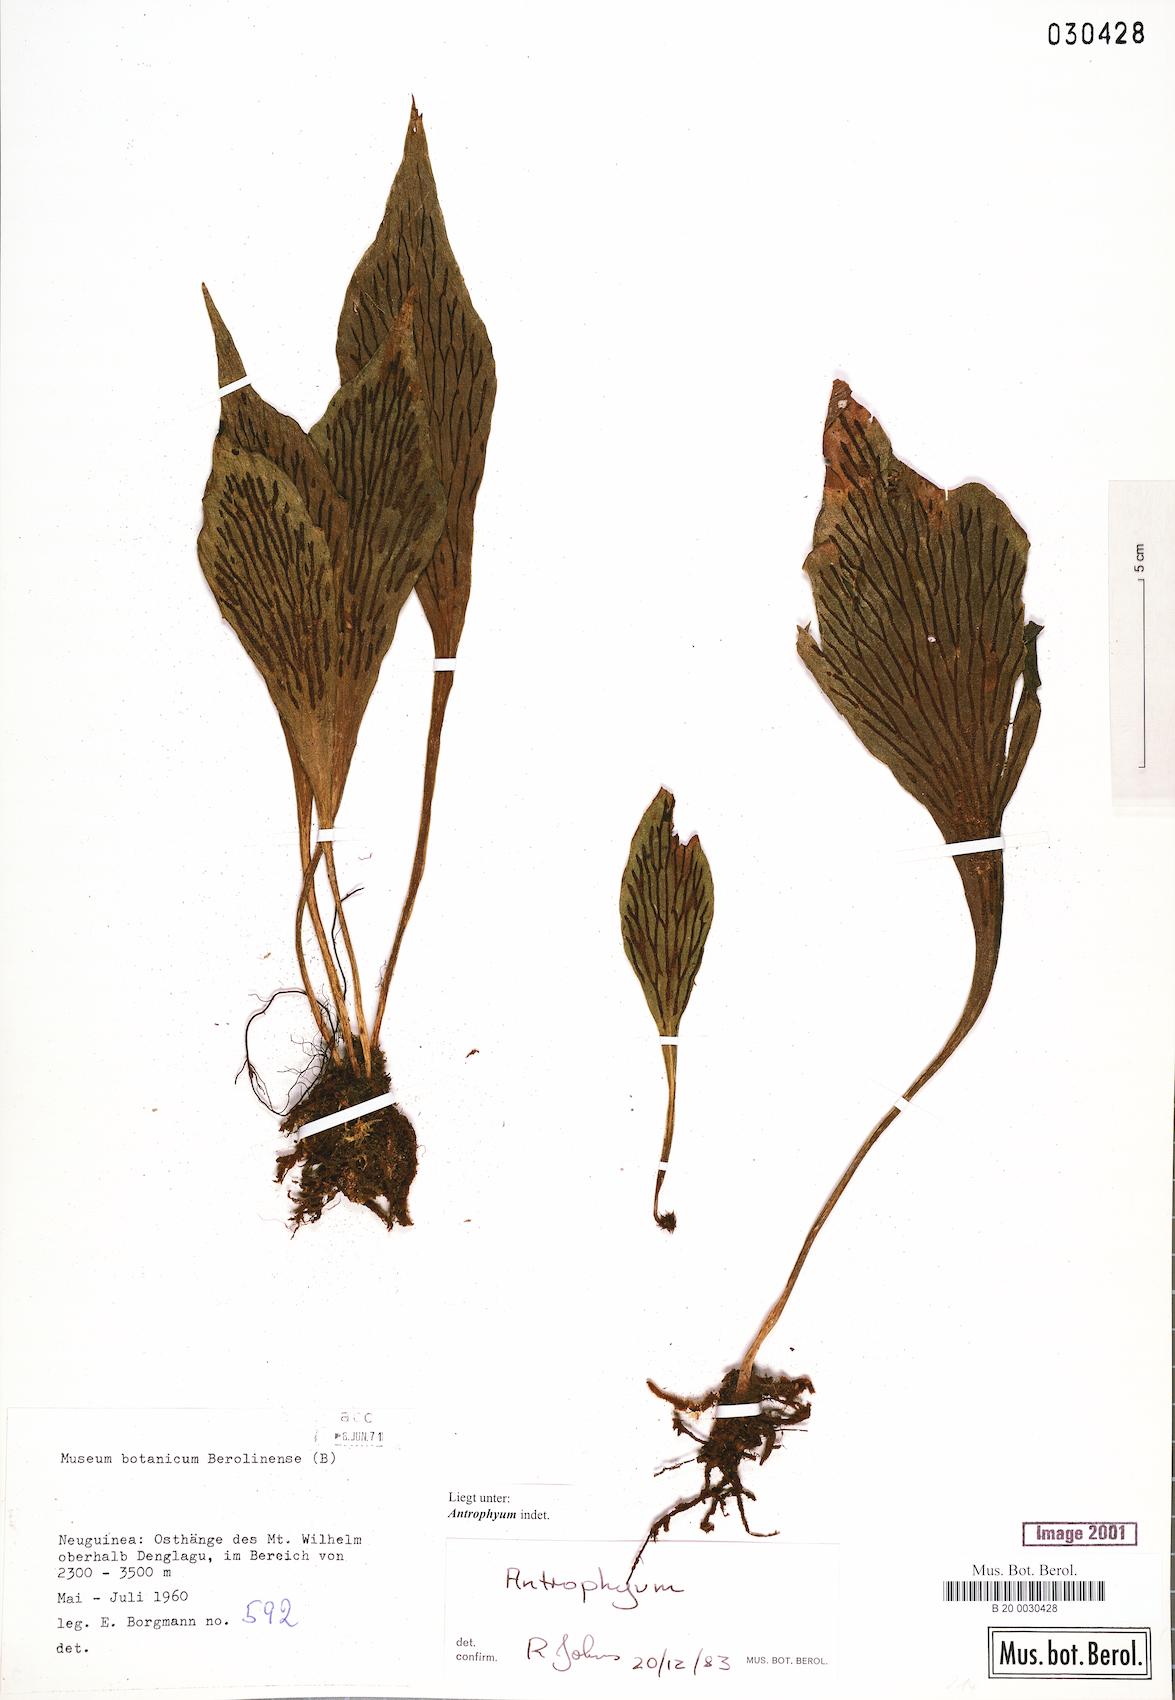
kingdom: Plantae
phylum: Tracheophyta
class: Polypodiopsida
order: Polypodiales
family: Pteridaceae
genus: Antrophyum
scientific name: Antrophyum
